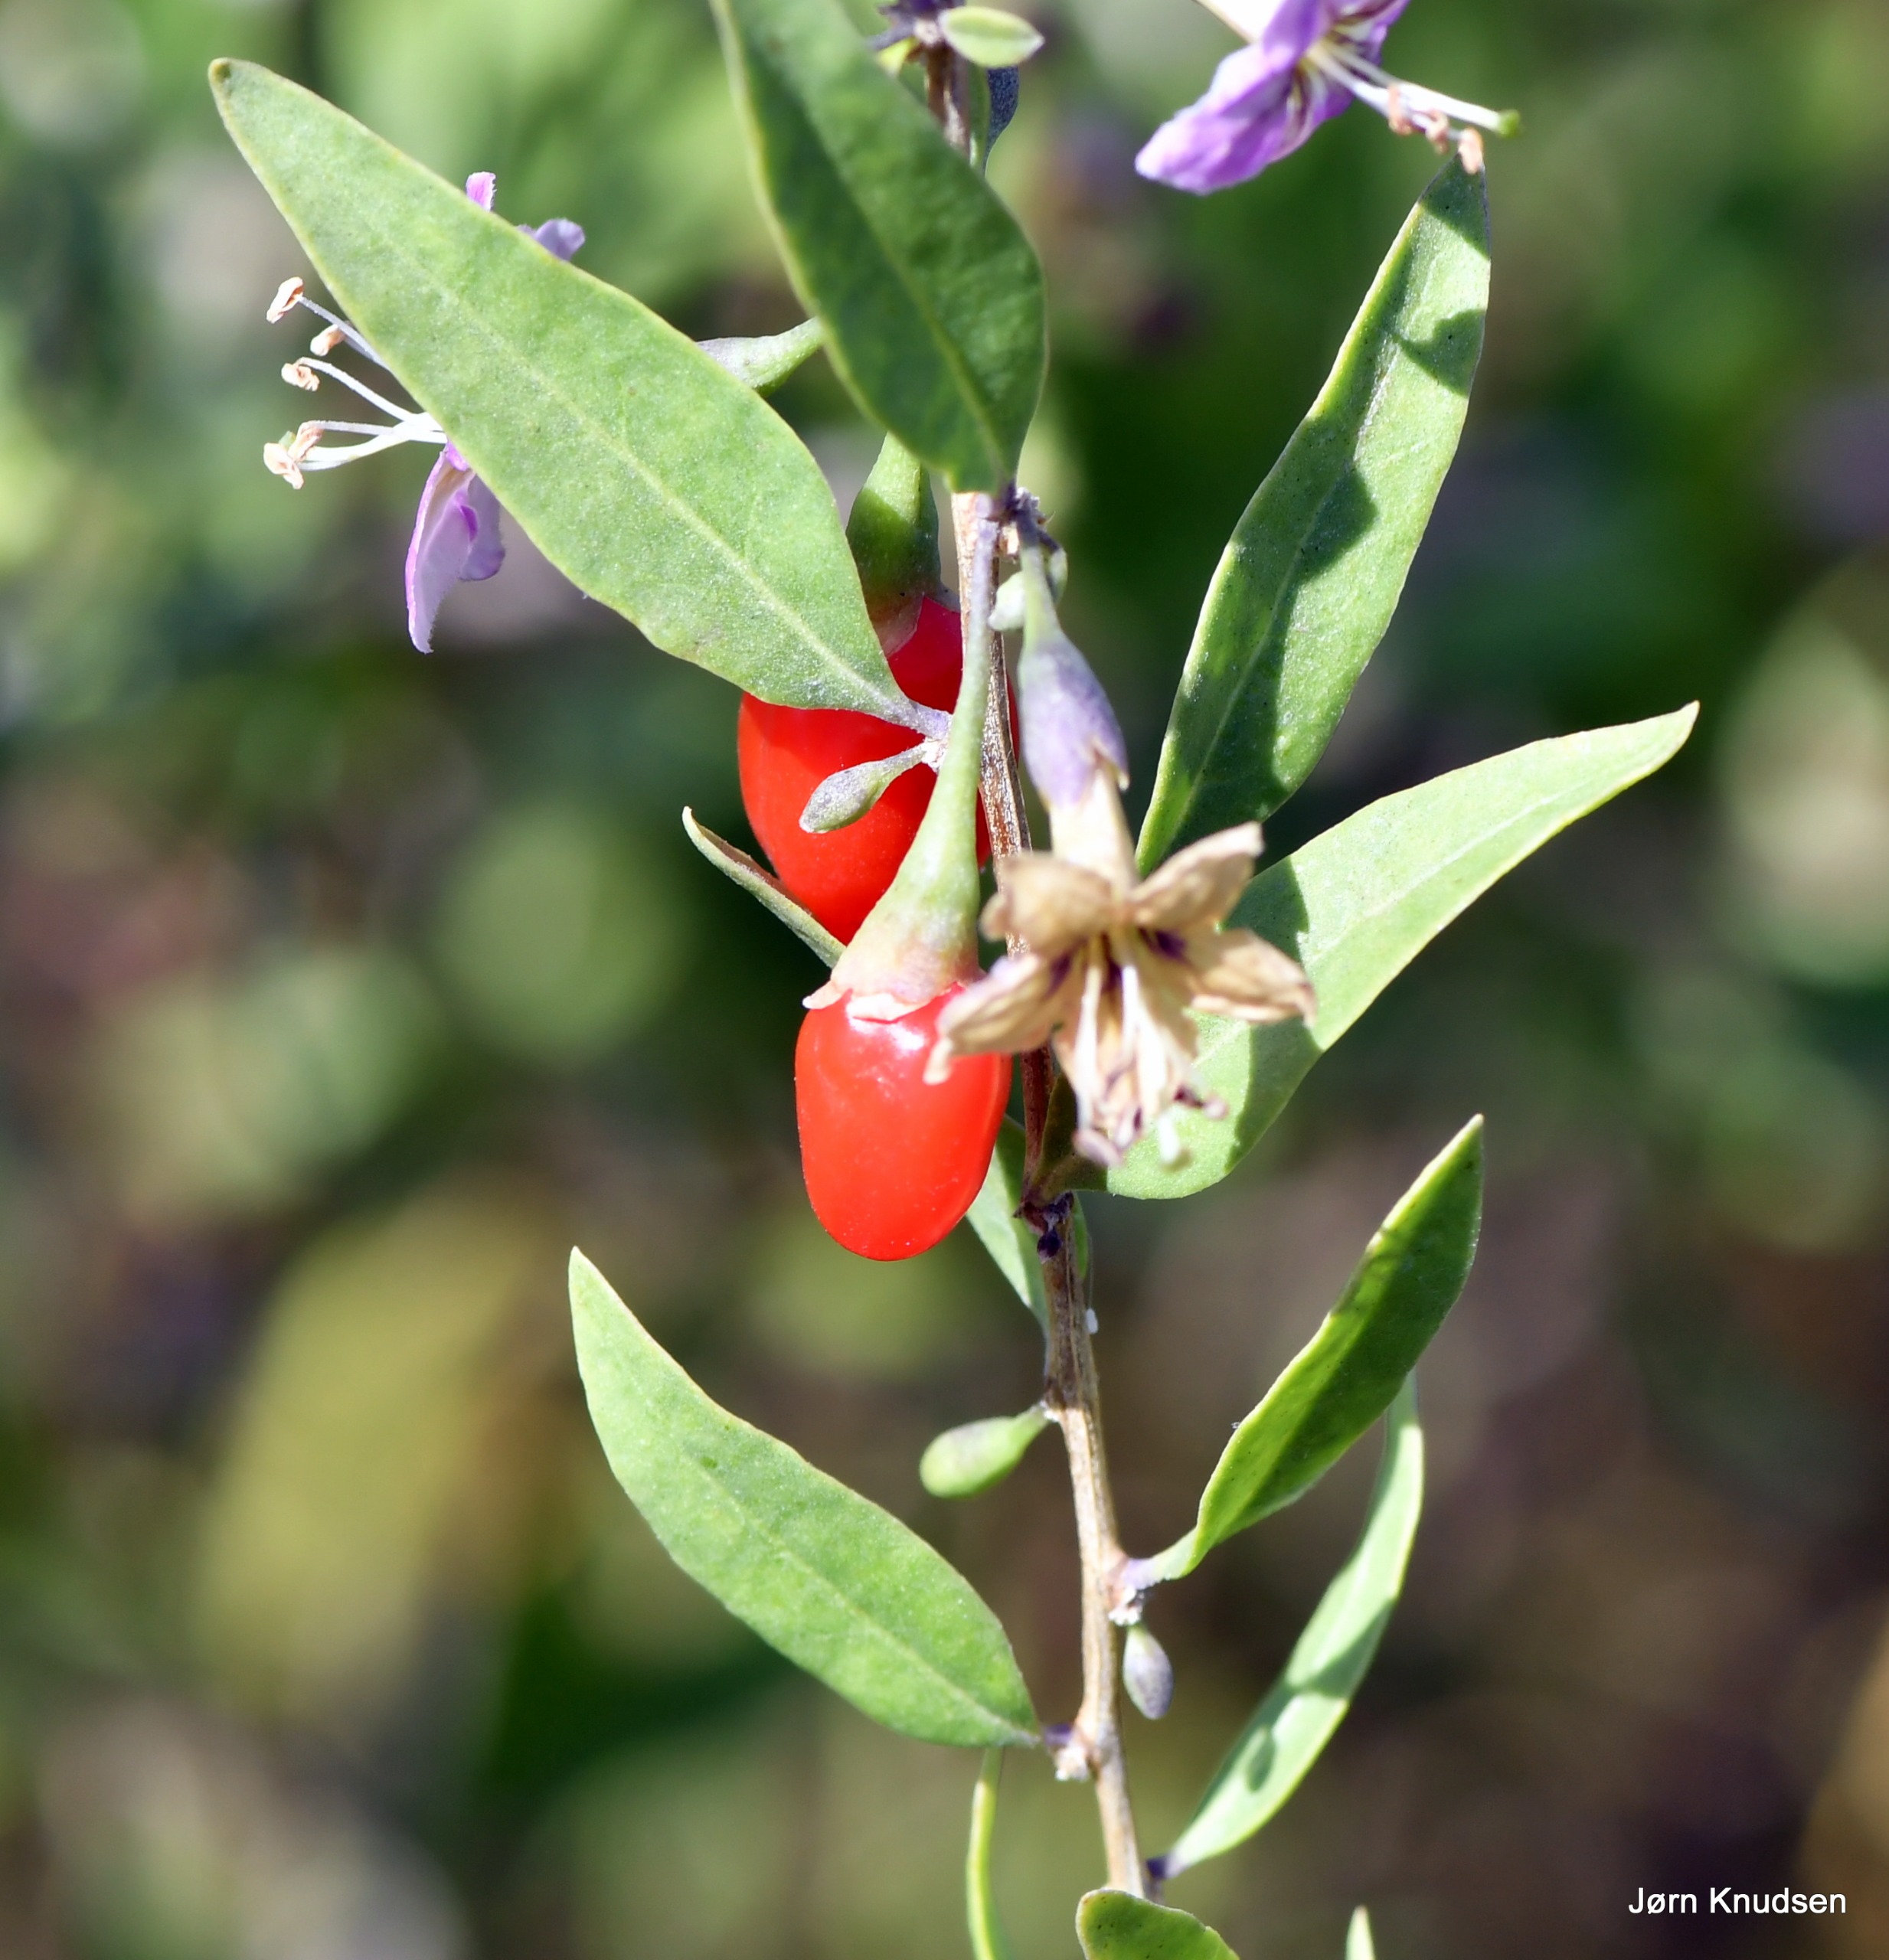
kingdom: Plantae
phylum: Tracheophyta
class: Magnoliopsida
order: Solanales
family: Solanaceae
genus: Lycium
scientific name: Lycium barbarum
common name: Bukketorn
